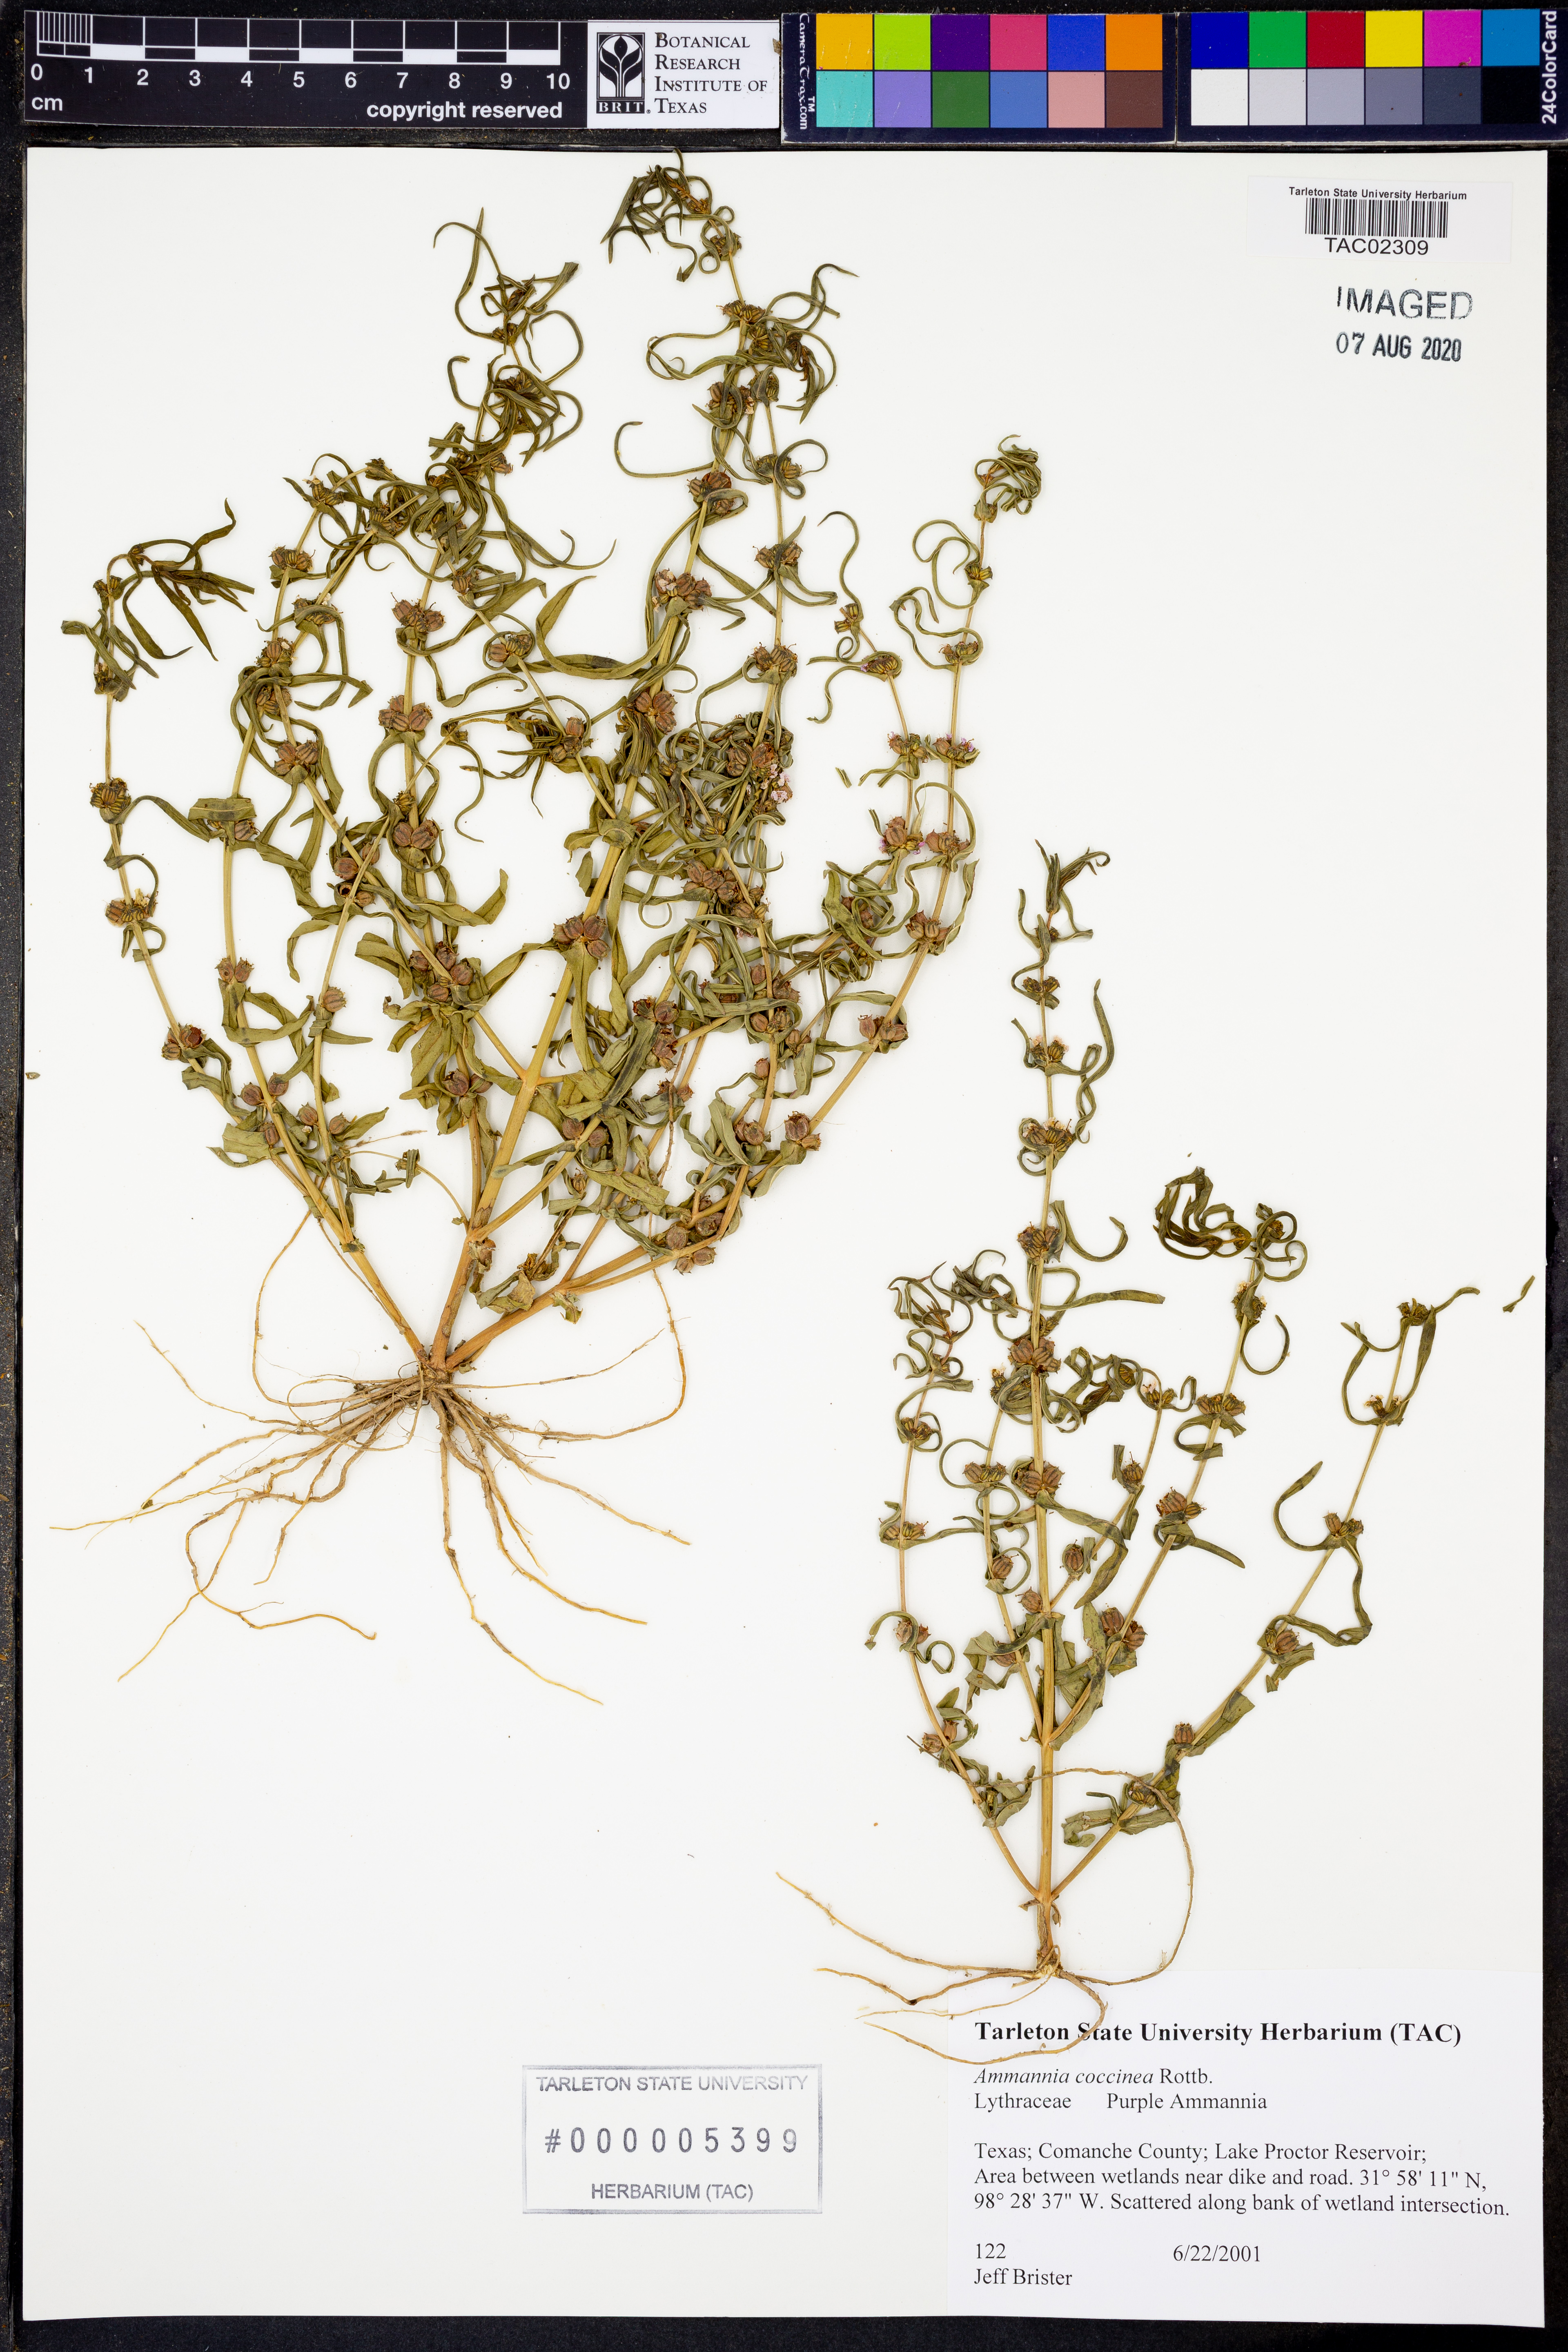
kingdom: Plantae
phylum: Tracheophyta
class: Magnoliopsida
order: Myrtales
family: Lythraceae
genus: Ammannia
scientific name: Ammannia coccinea
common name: Valley redstem
